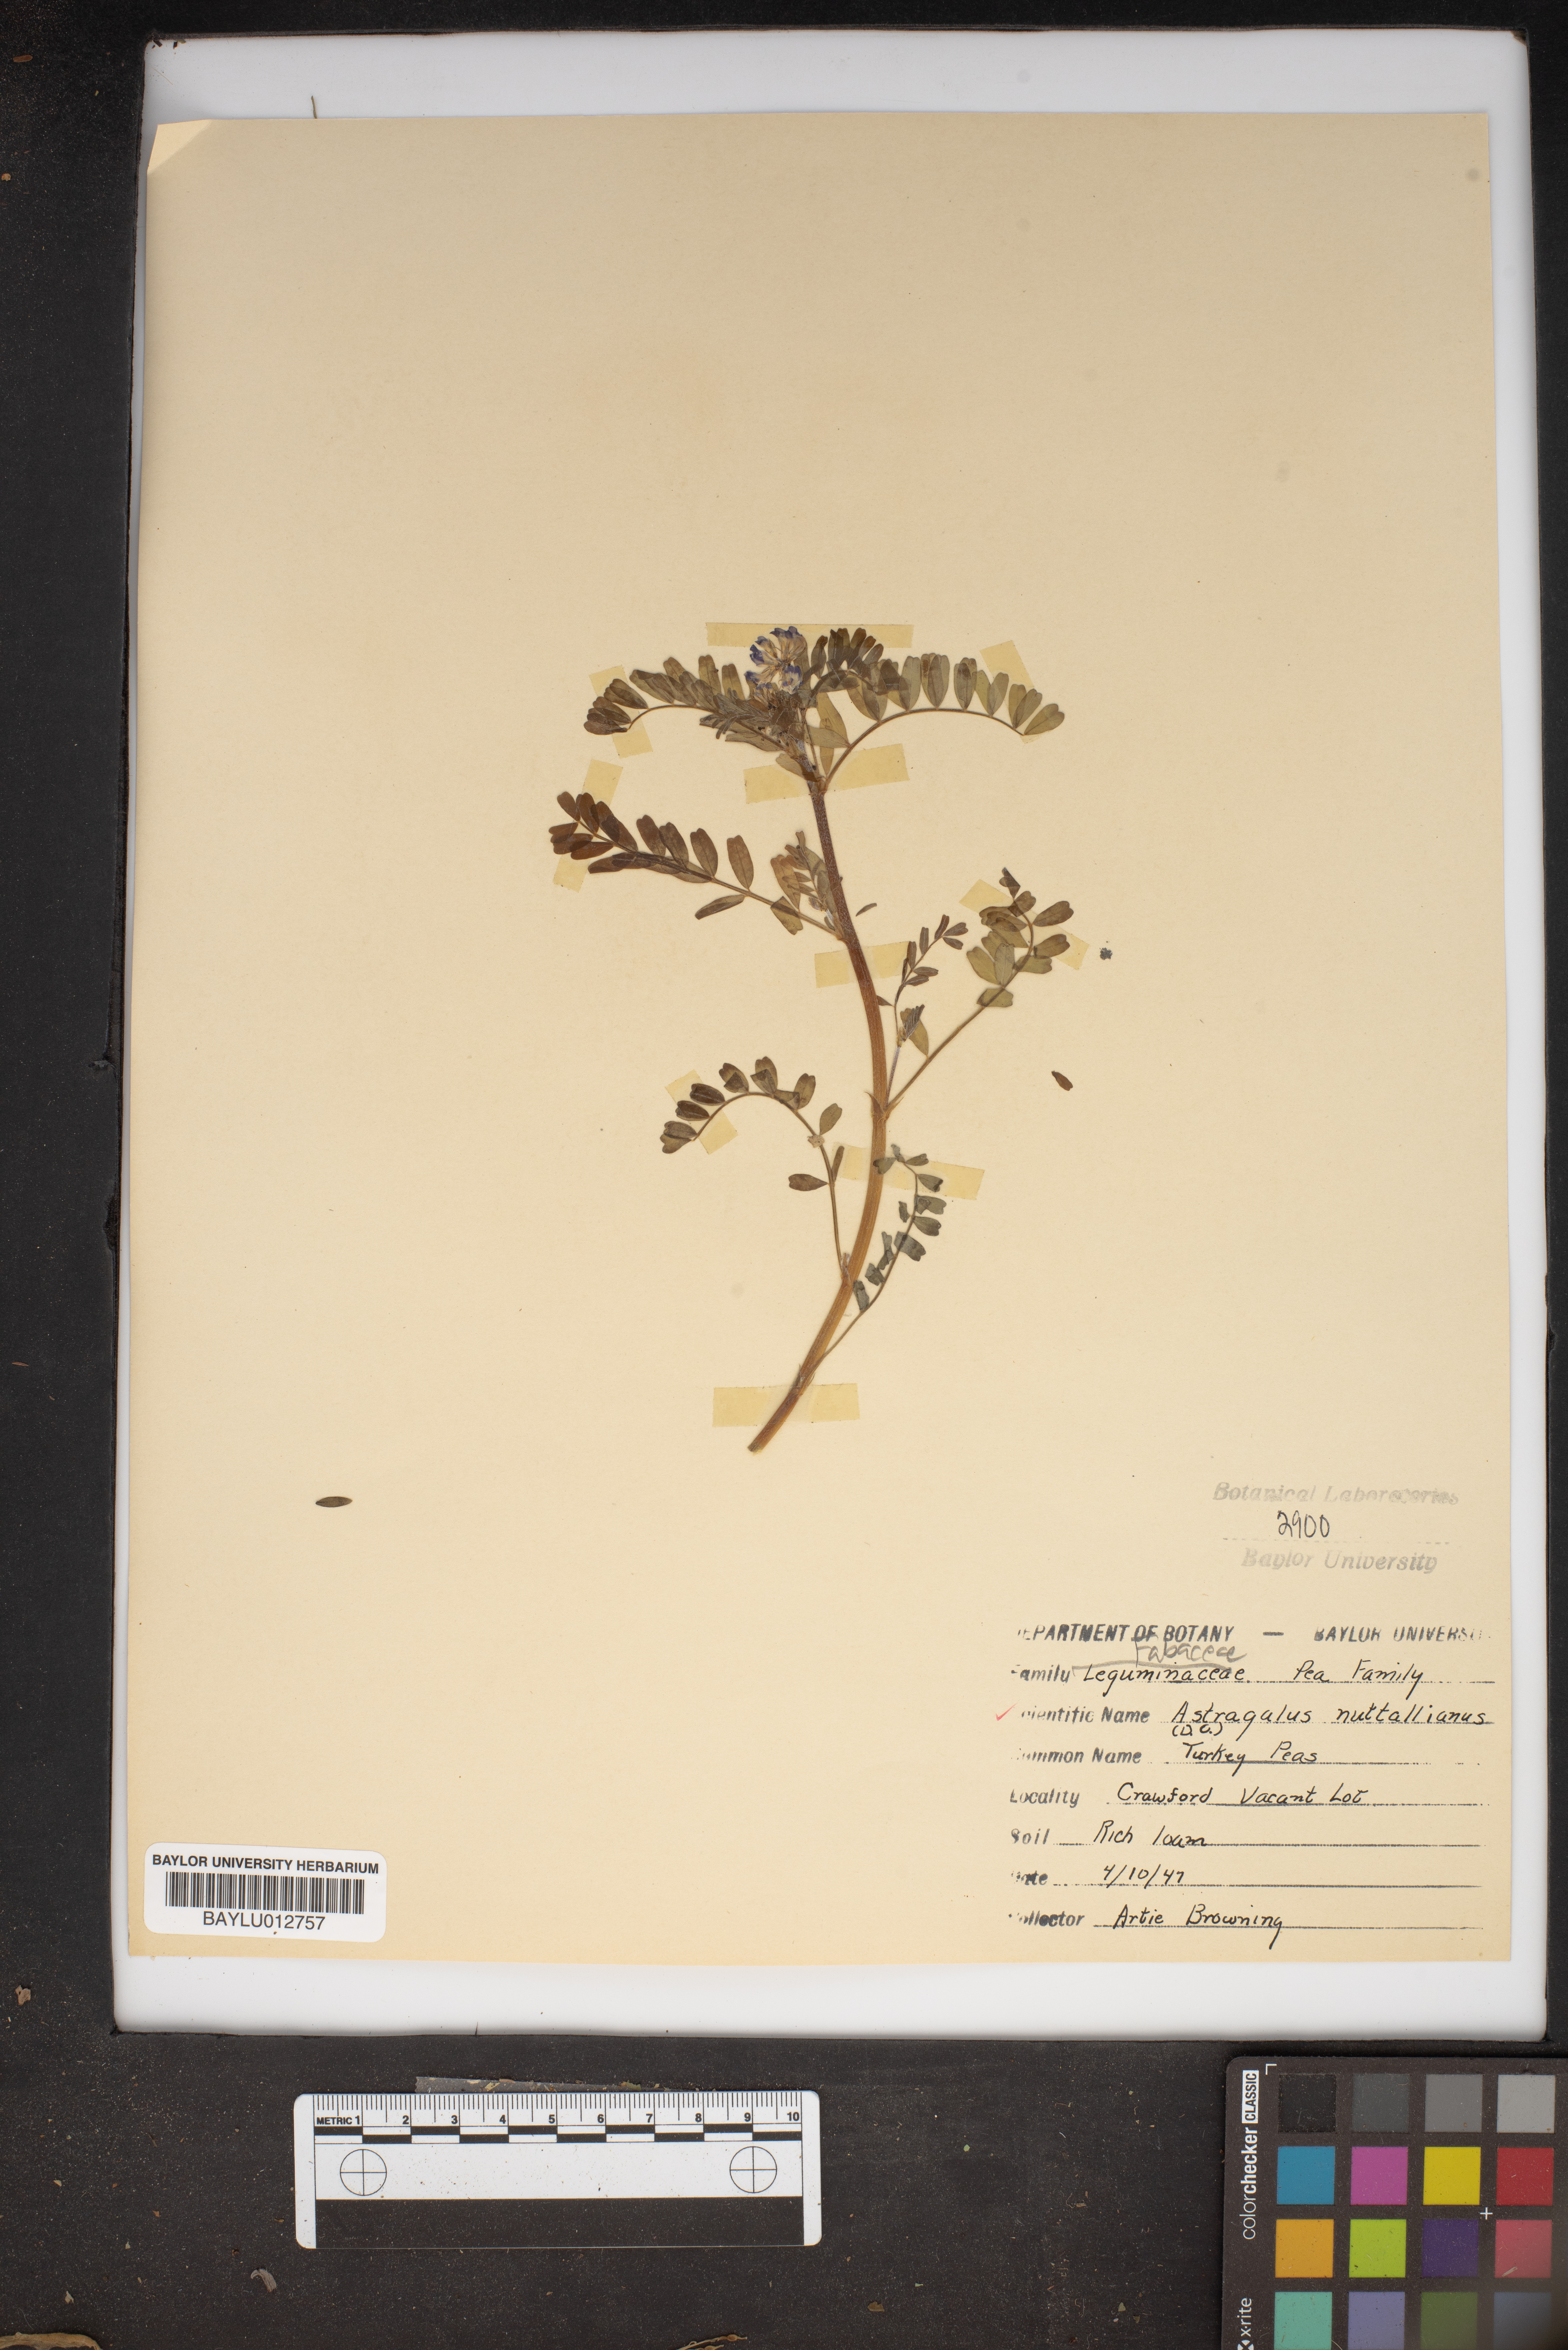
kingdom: Plantae
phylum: Tracheophyta
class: Magnoliopsida
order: Fabales
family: Fabaceae
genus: Astragalus
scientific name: Astragalus nuttallianus
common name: Smallflowered milkvetch
